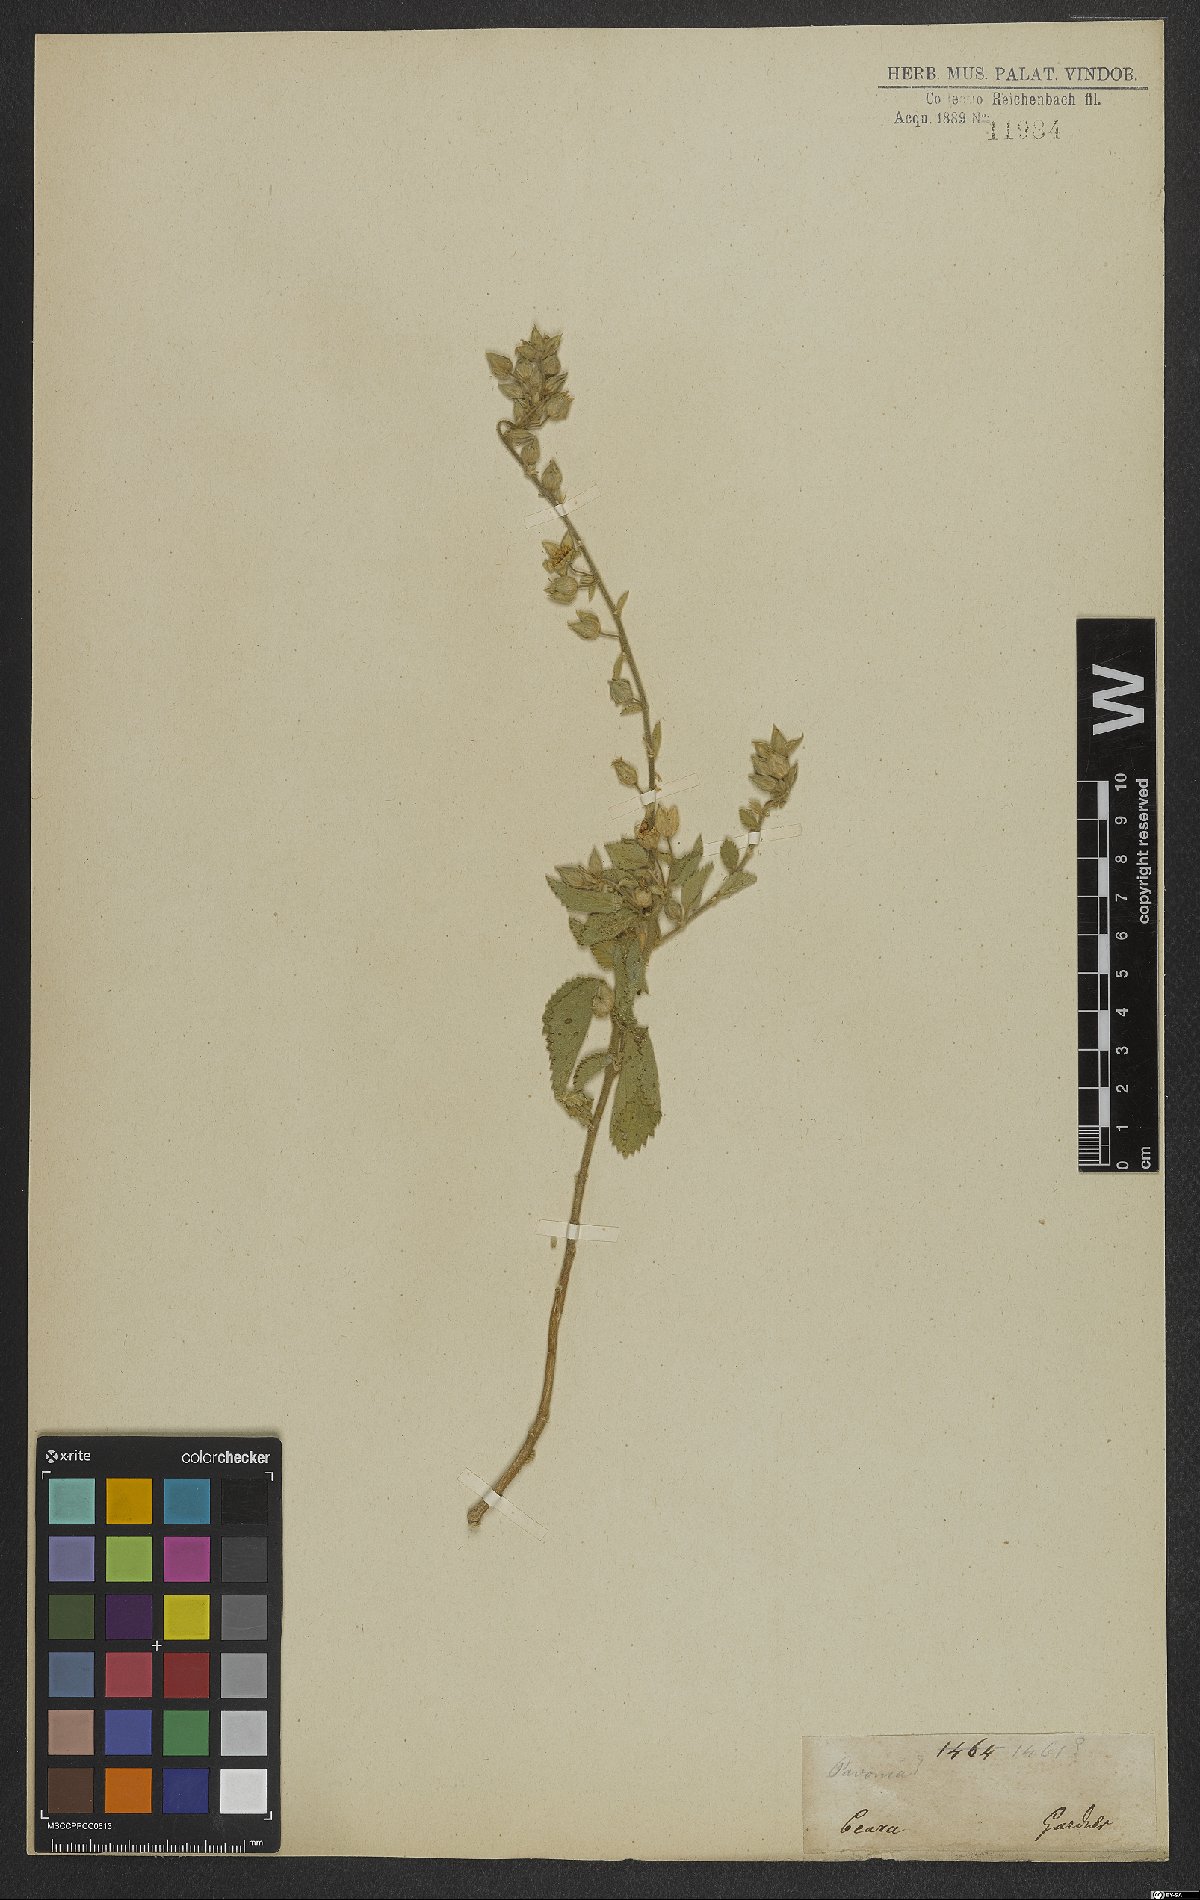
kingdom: Plantae
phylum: Tracheophyta
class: Magnoliopsida
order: Malvales
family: Malvaceae
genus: Pavonia
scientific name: Pavonia
